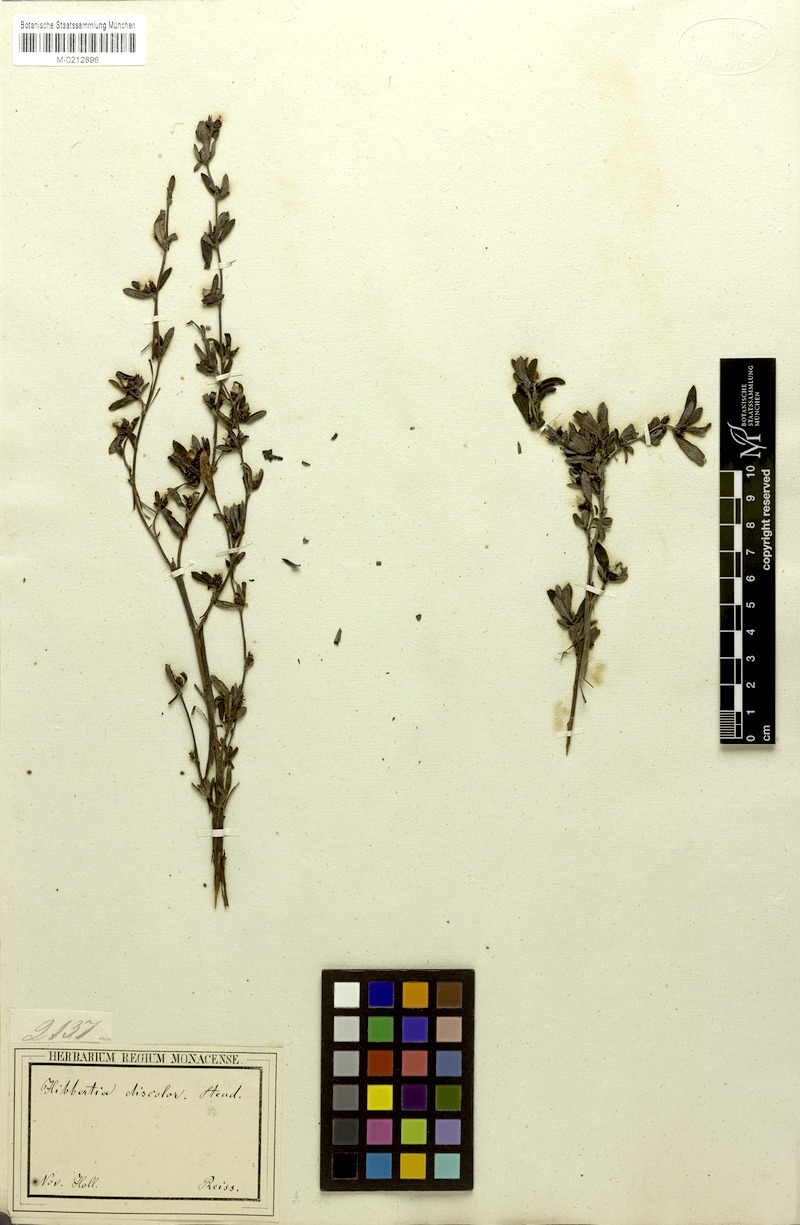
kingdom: Plantae
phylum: Tracheophyta
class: Magnoliopsida
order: Dilleniales
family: Dilleniaceae
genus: Hibbertia
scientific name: Hibbertia montana
